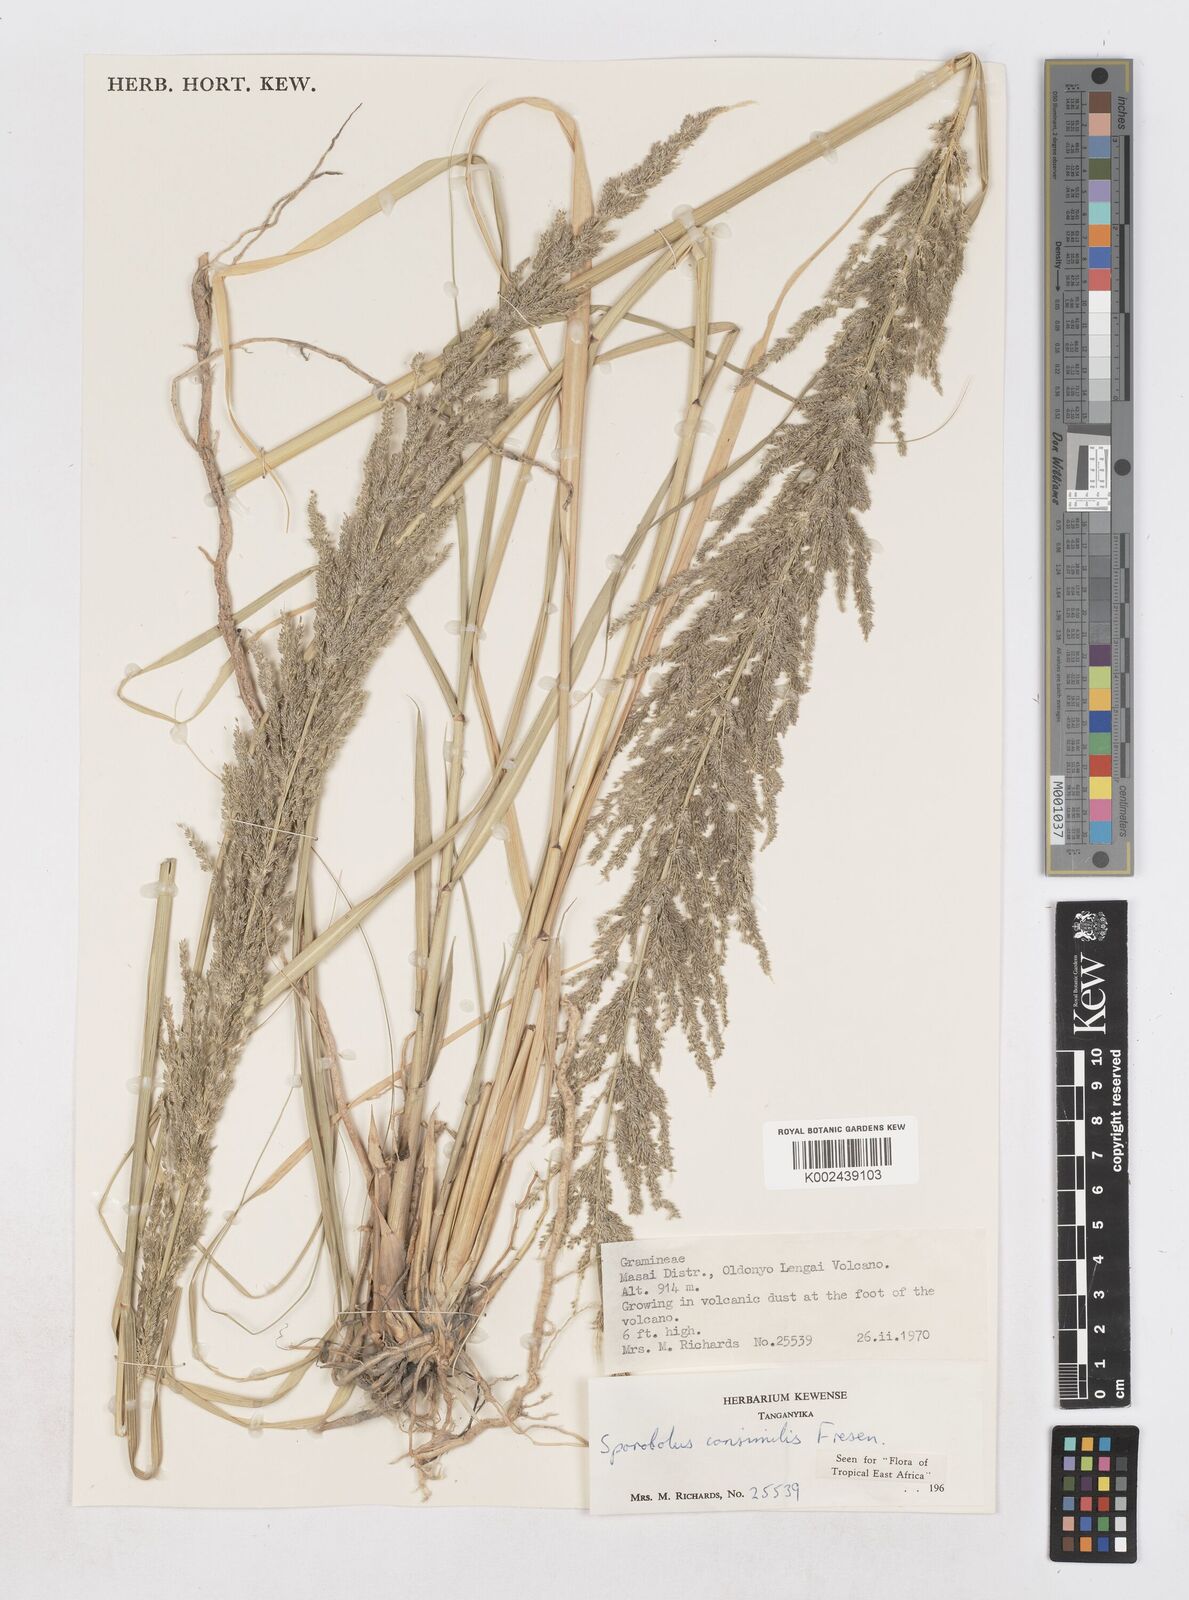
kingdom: Plantae
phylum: Tracheophyta
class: Liliopsida
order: Poales
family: Poaceae
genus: Sporobolus
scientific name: Sporobolus consimilis
